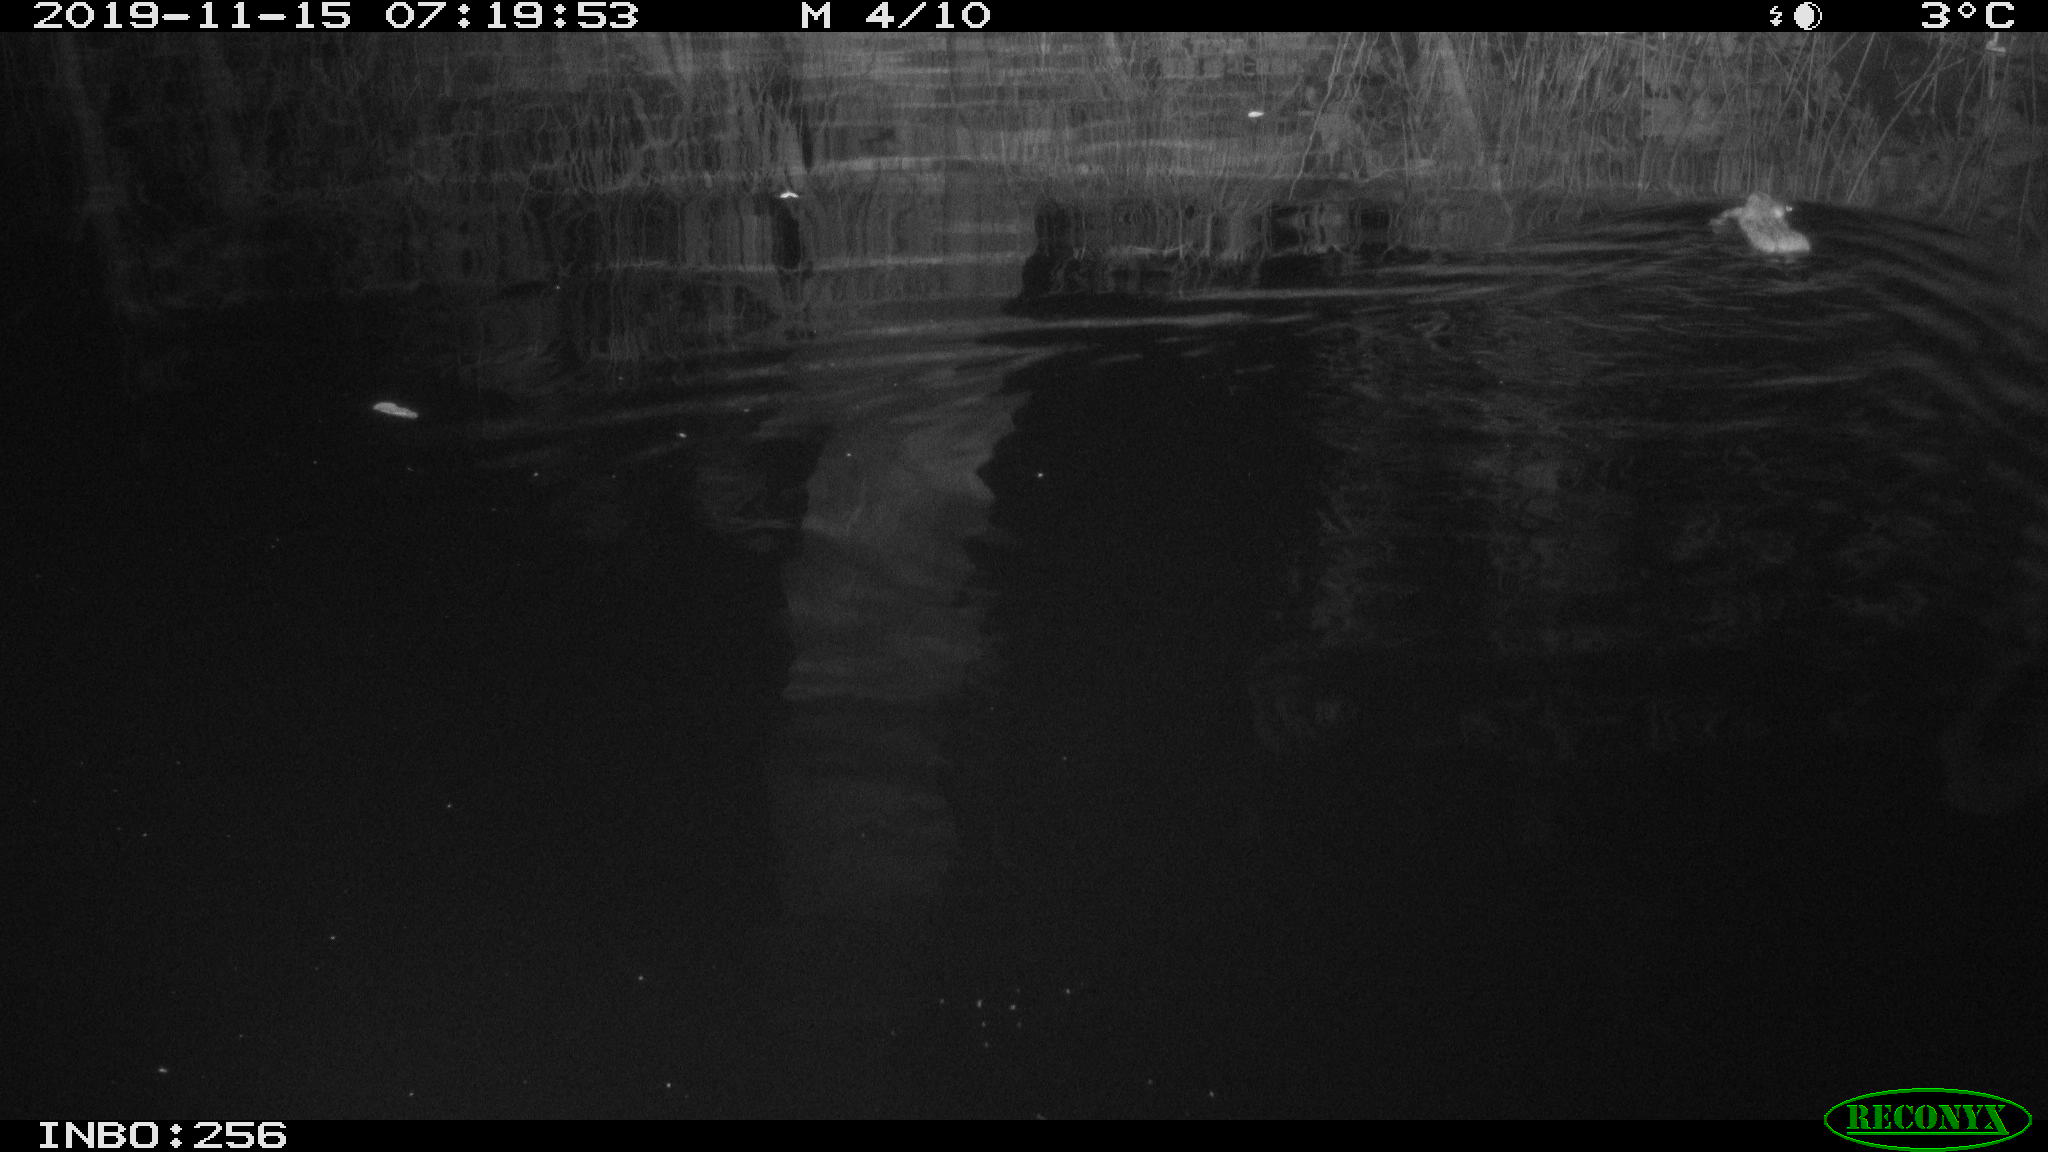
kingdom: Animalia
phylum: Chordata
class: Mammalia
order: Rodentia
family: Muridae
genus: Rattus
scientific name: Rattus norvegicus
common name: Brown rat
